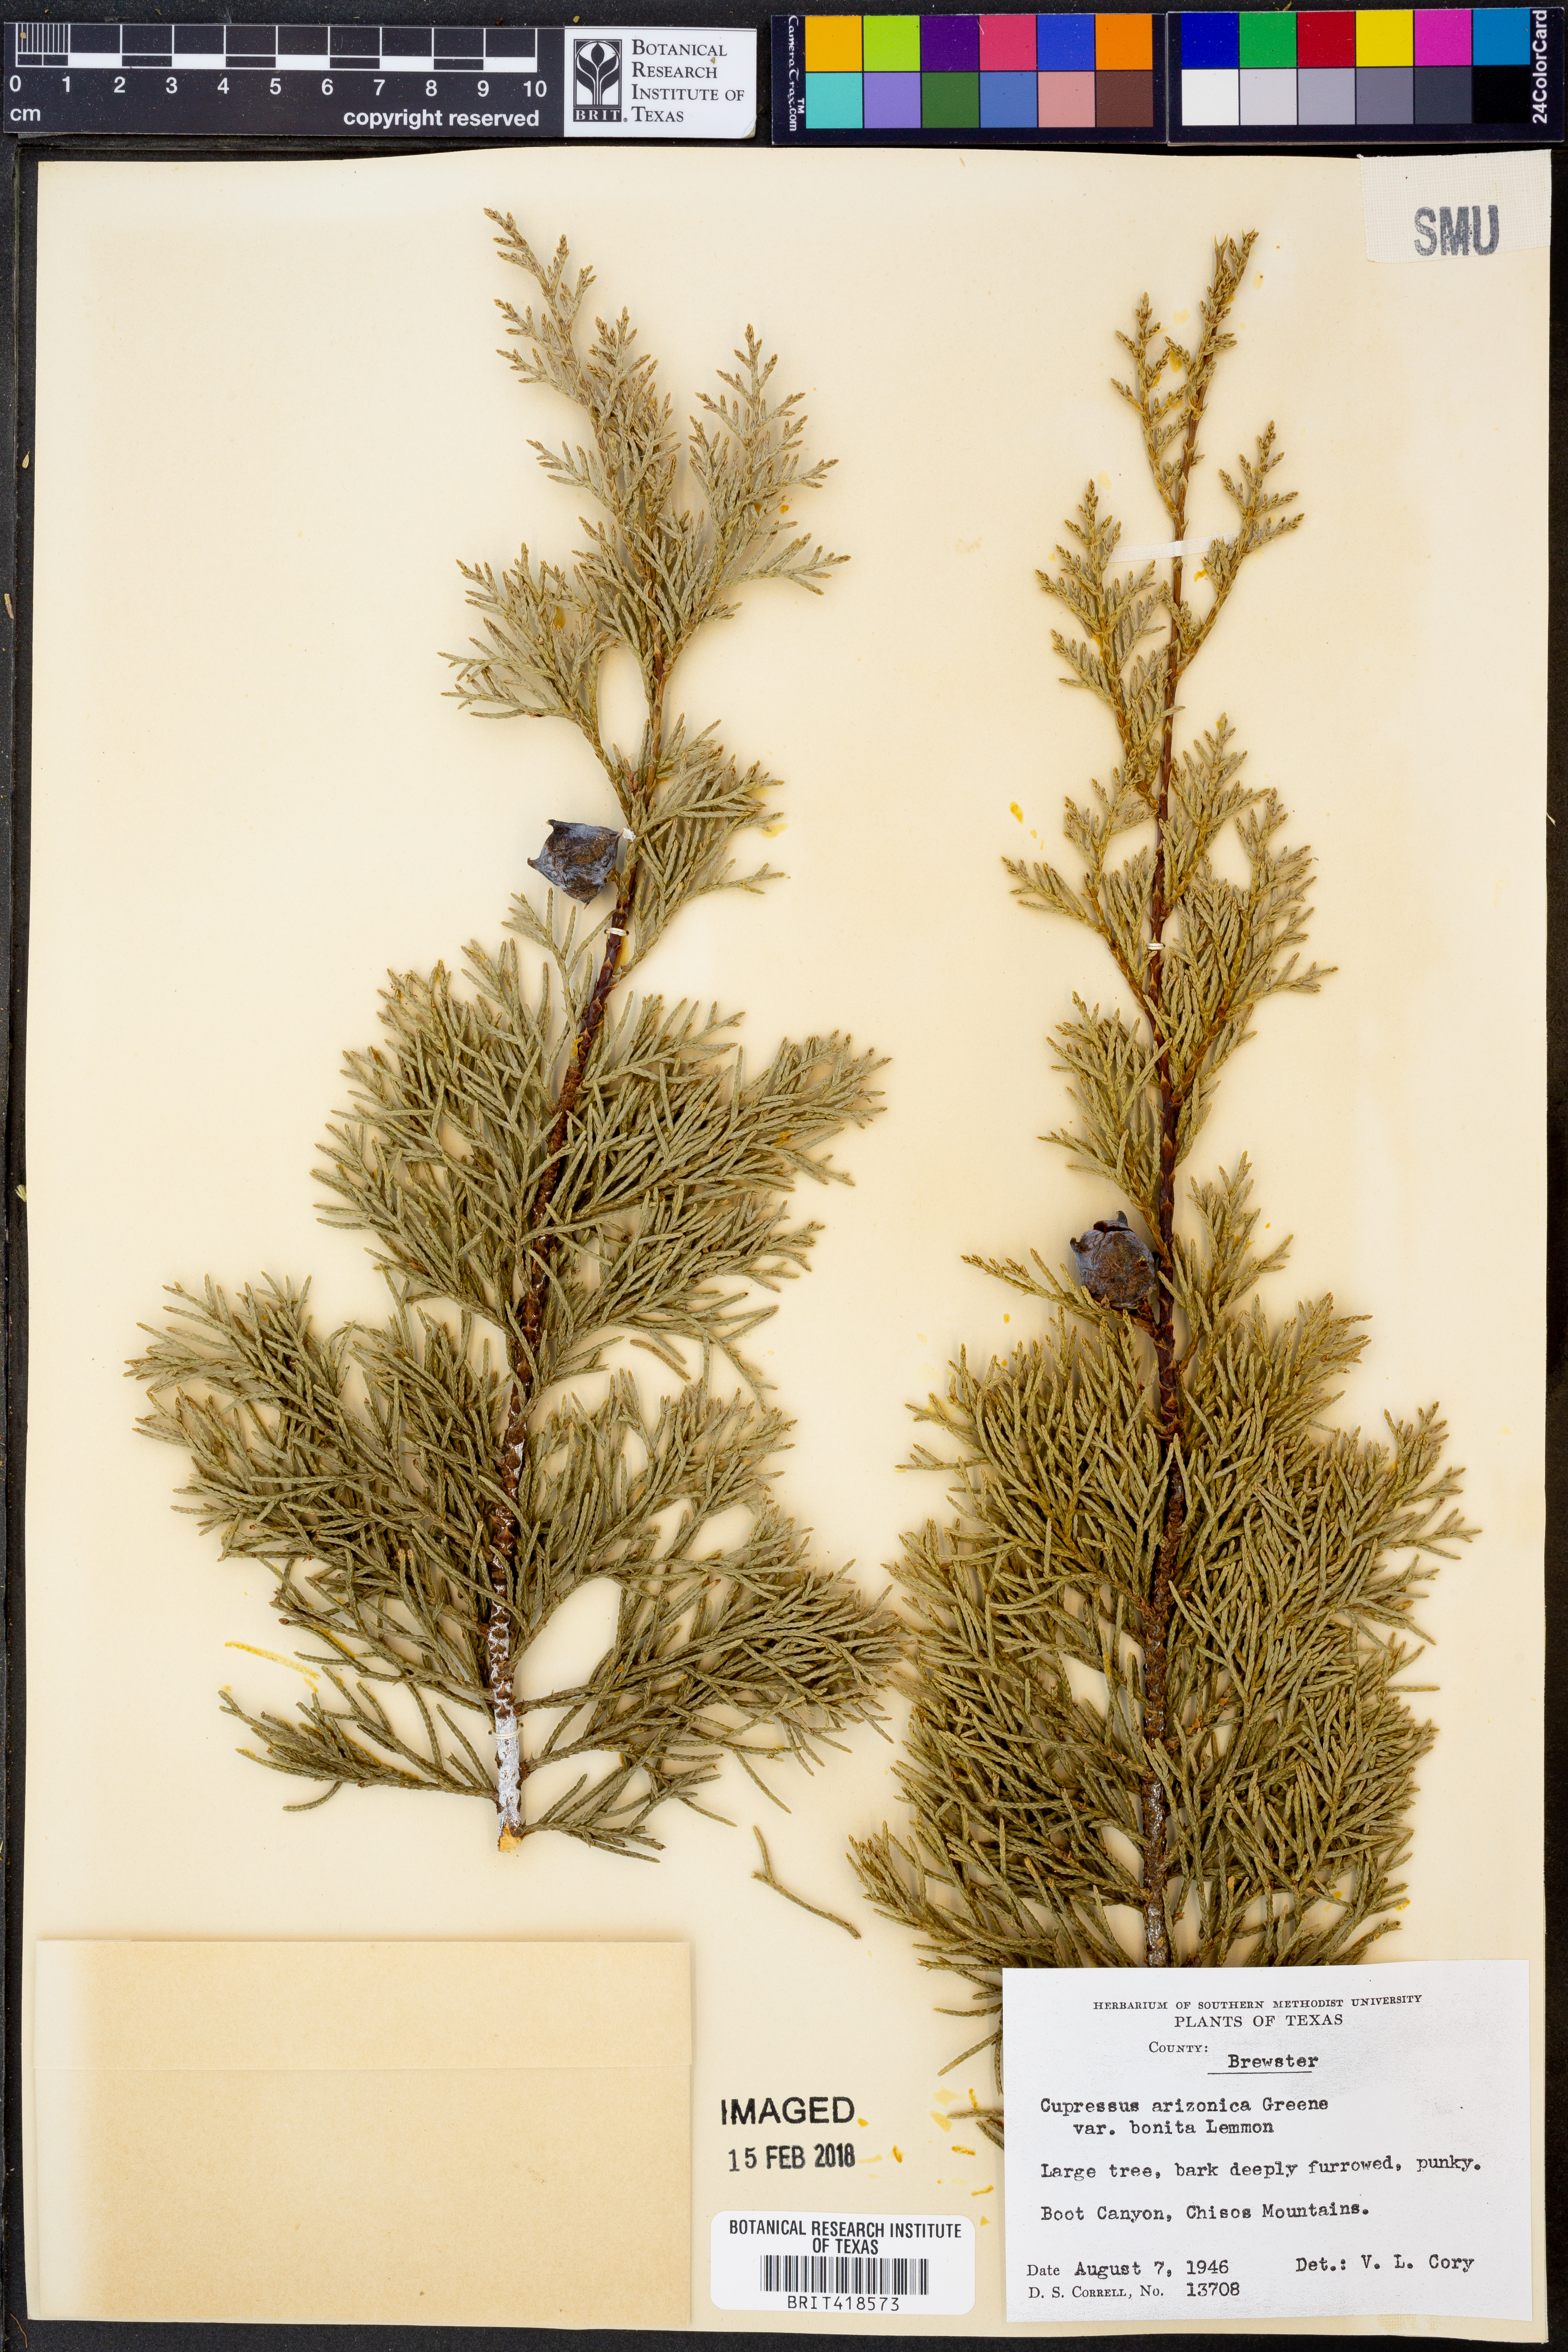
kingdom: Plantae
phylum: Tracheophyta
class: Pinopsida
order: Pinales
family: Cupressaceae
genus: Cupressus
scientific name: Cupressus arizonica
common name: Arizona cypress
